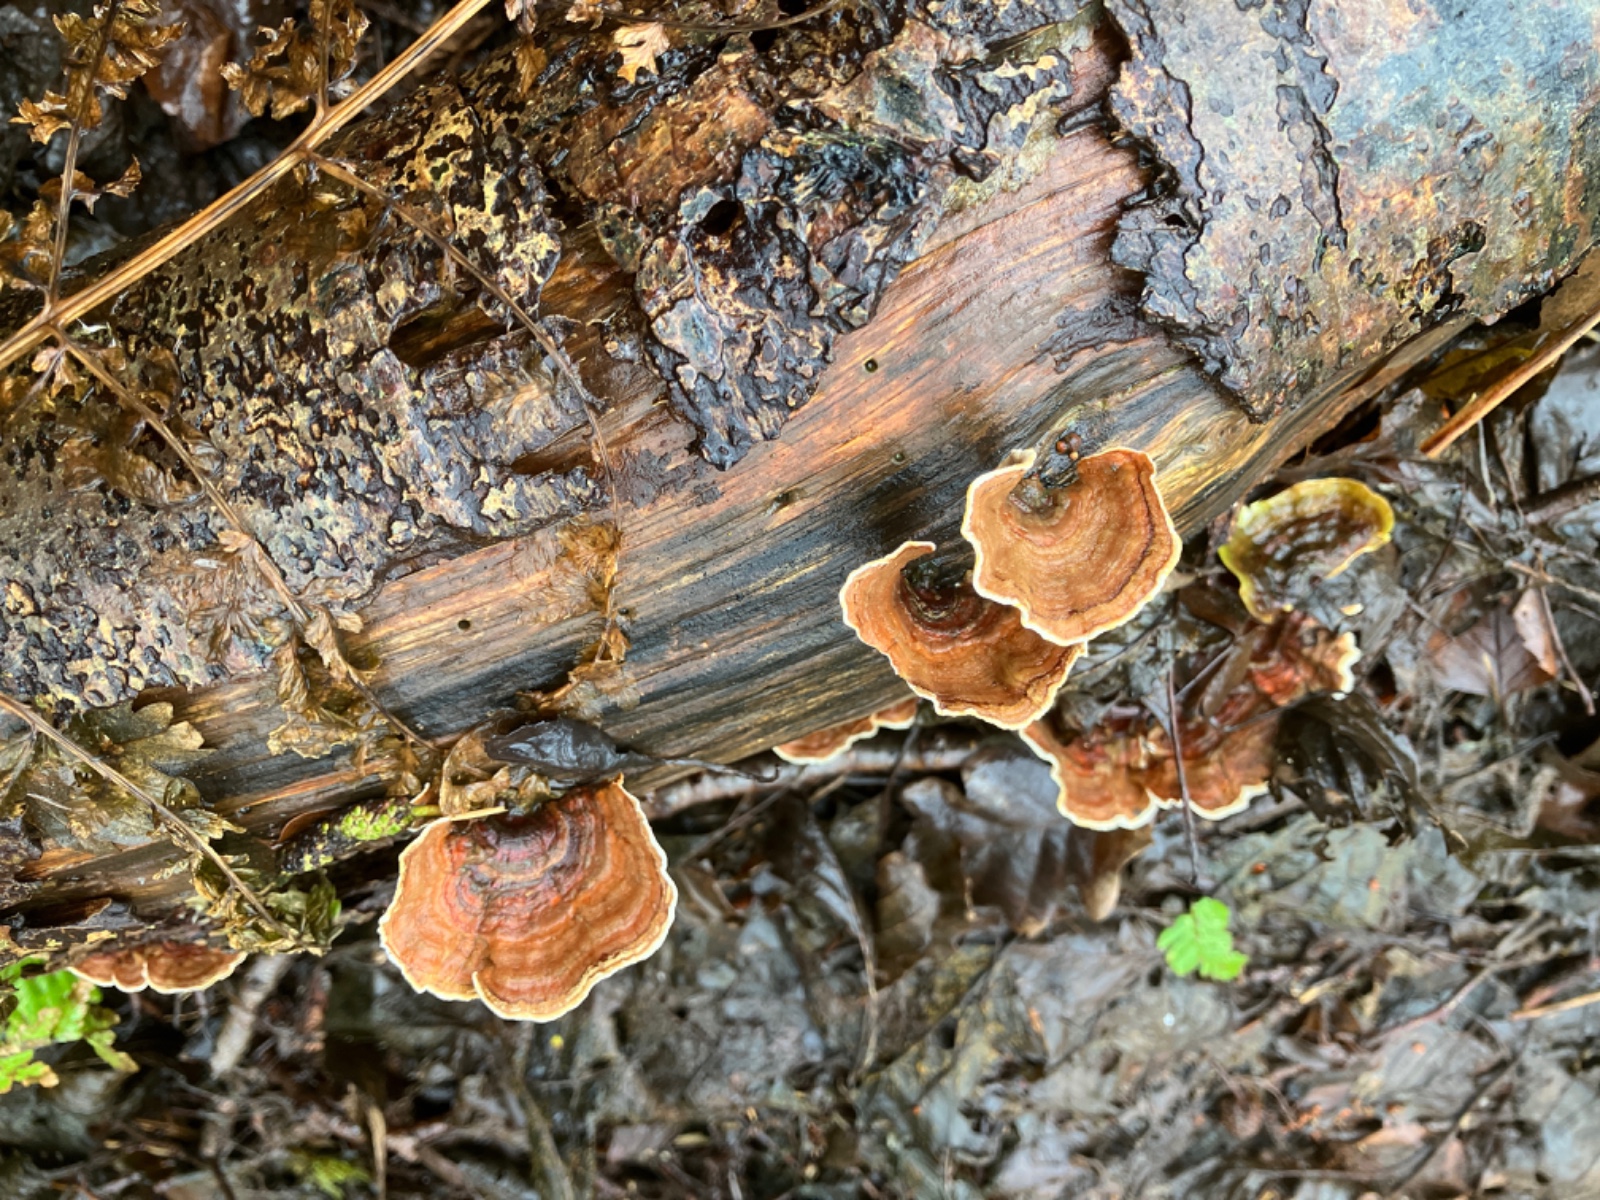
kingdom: Fungi
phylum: Basidiomycota
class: Agaricomycetes
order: Russulales
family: Stereaceae
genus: Stereum
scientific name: Stereum subtomentosum
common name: smuk lædersvamp
